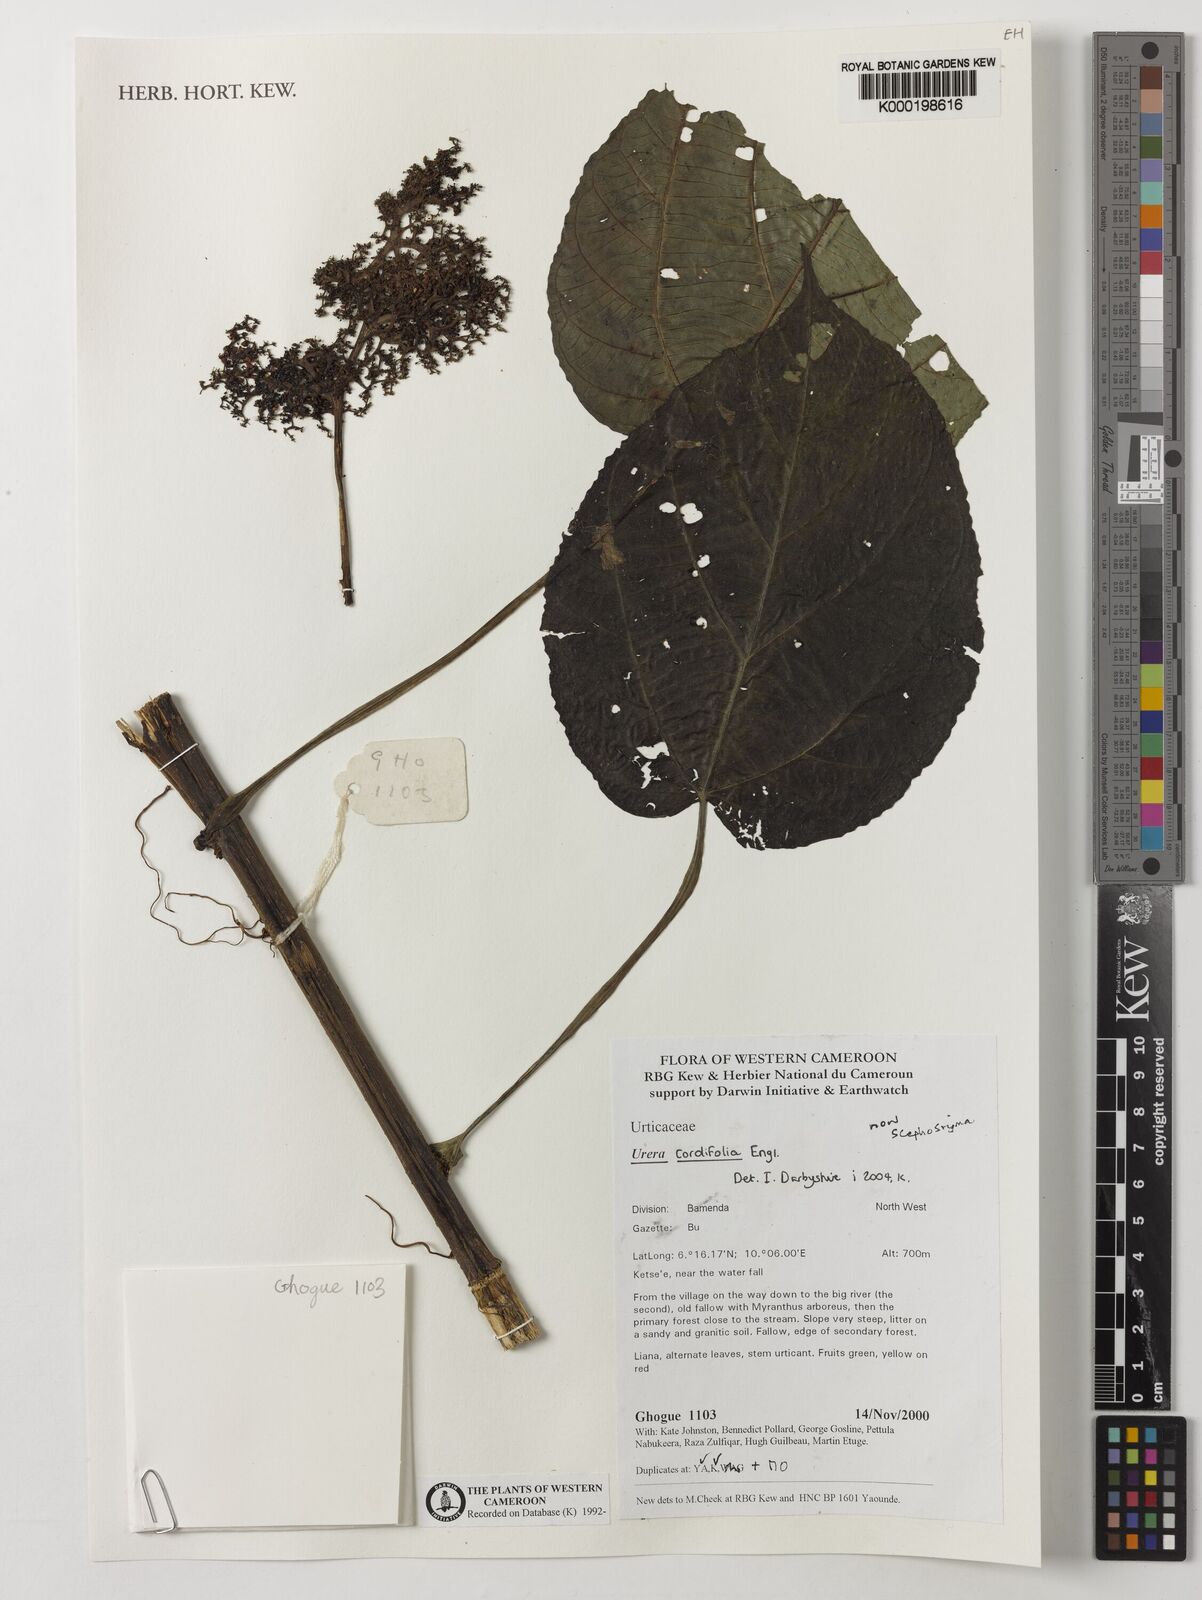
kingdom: Plantae
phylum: Tracheophyta
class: Magnoliopsida
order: Rosales
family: Urticaceae
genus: Scepocarpus
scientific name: Scepocarpus cordifolius
